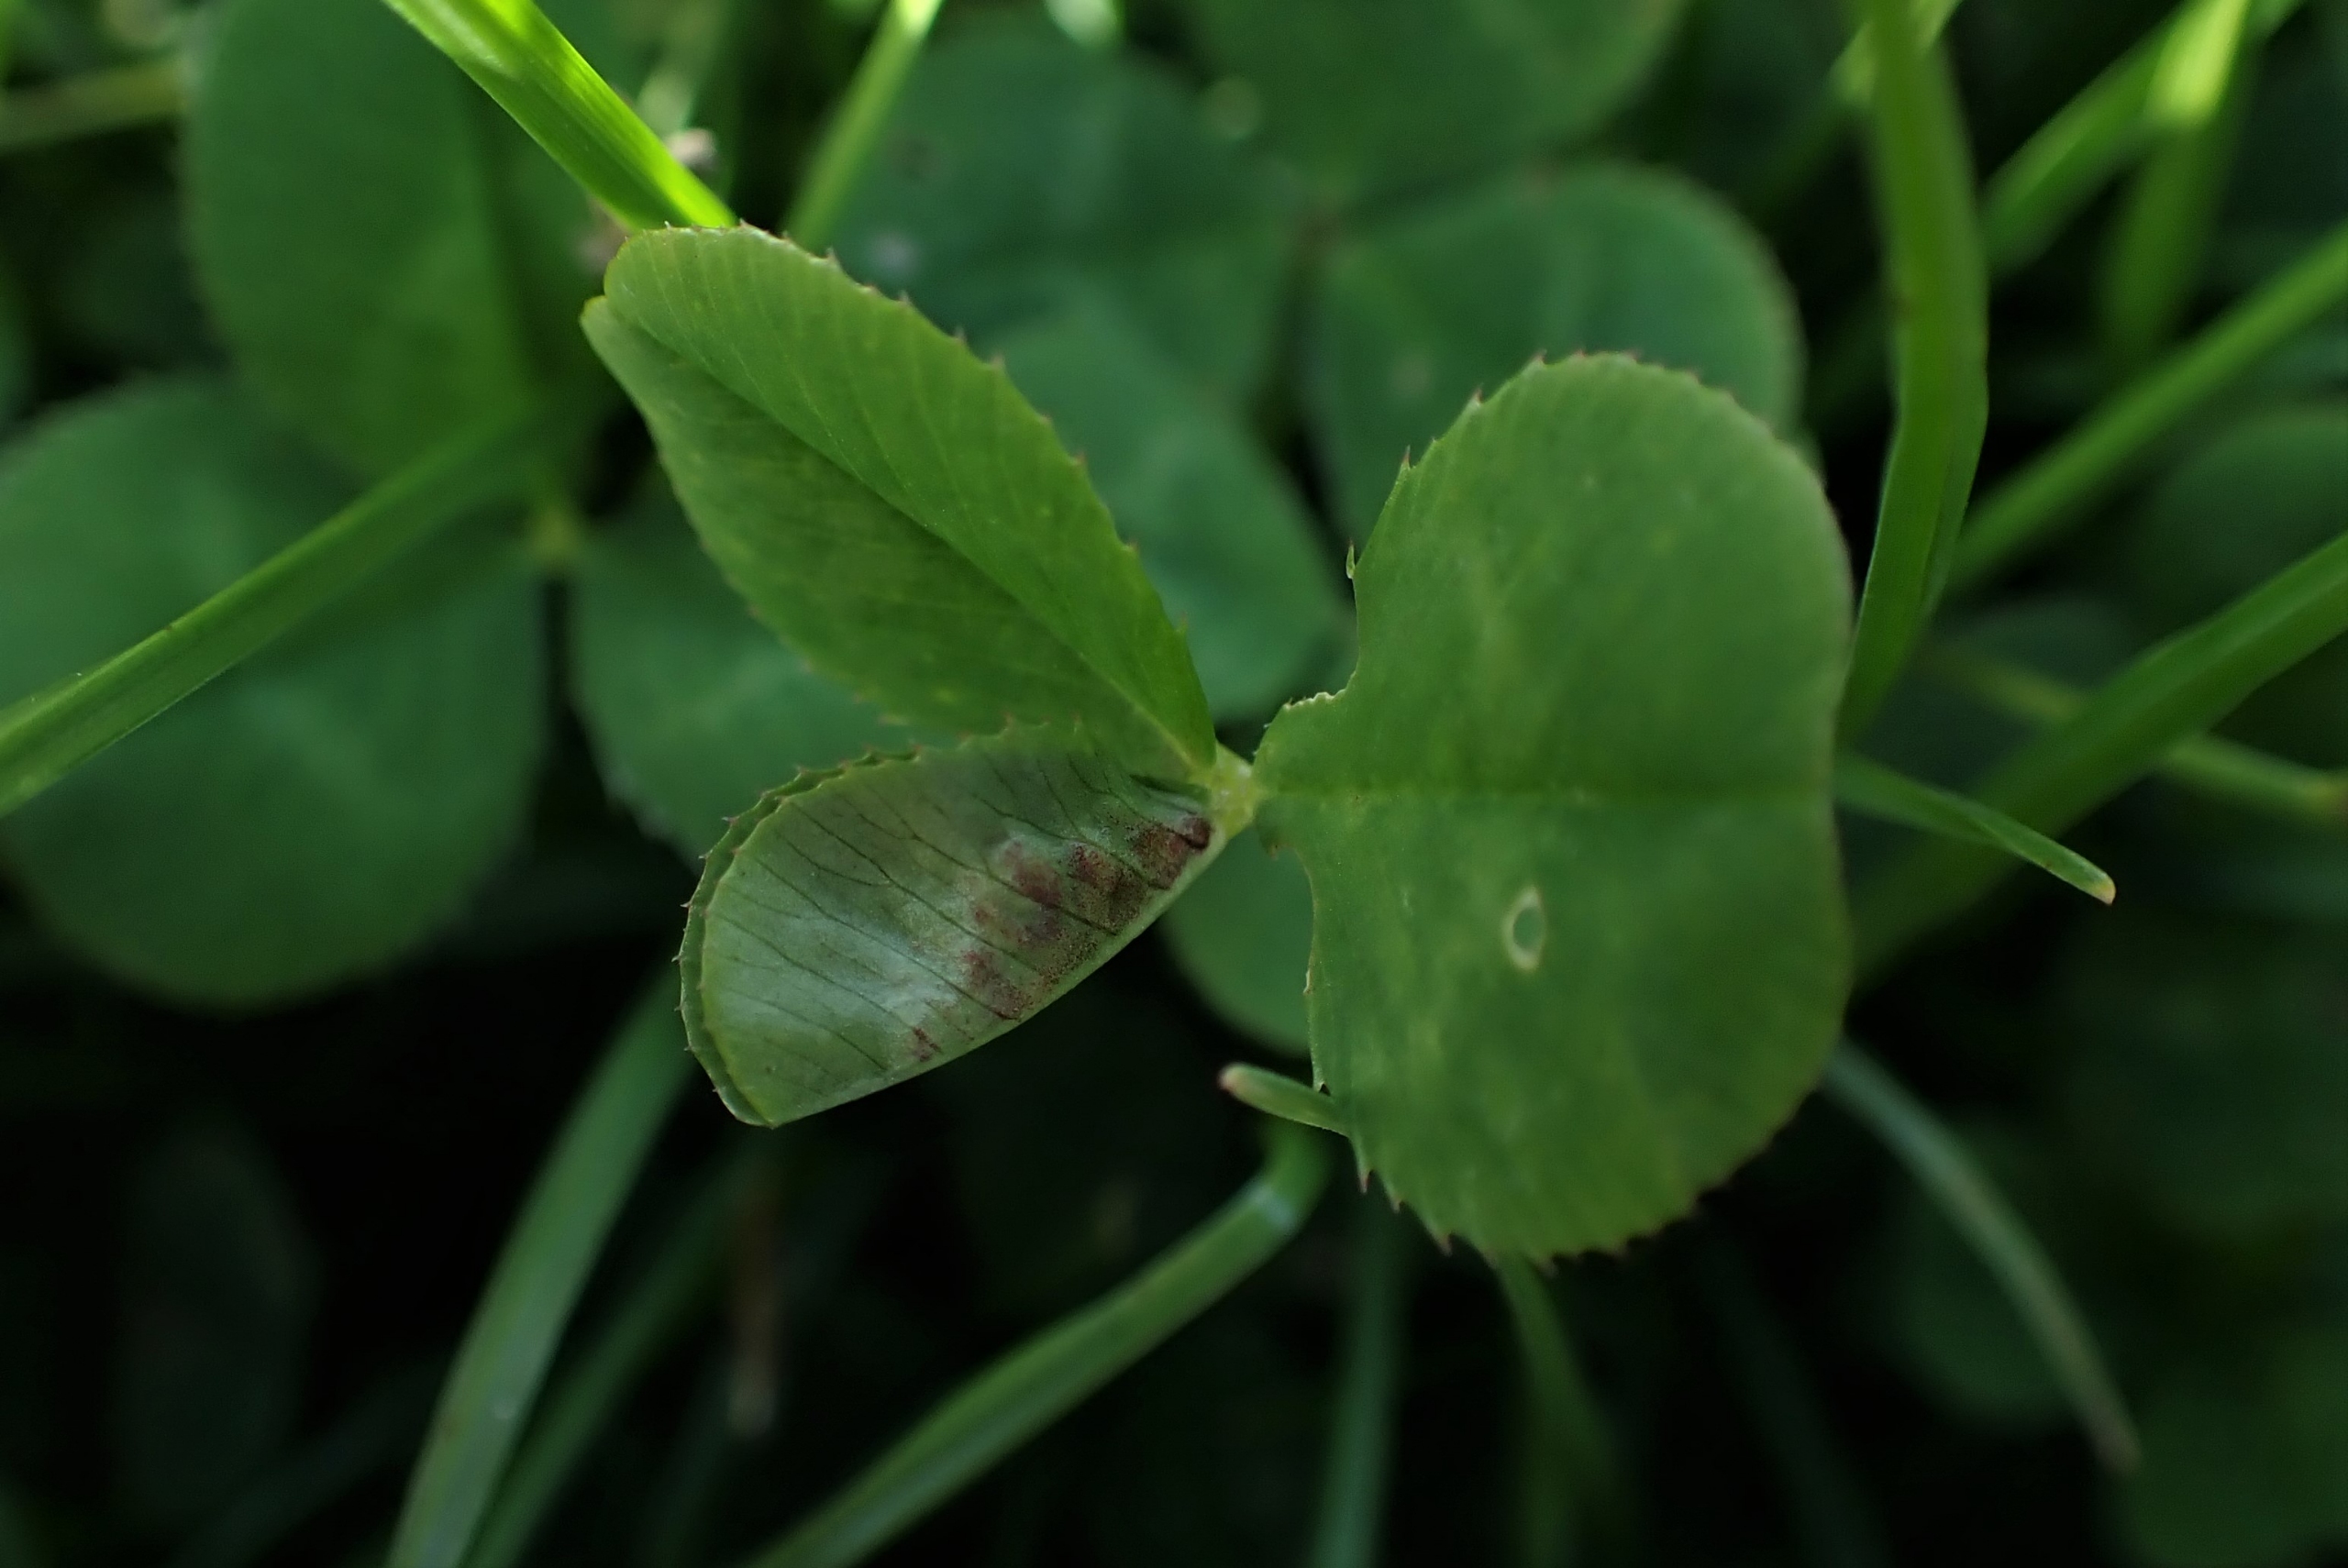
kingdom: Animalia
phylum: Arthropoda
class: Insecta
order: Diptera
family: Cecidomyiidae
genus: Dasineura
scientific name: Dasineura trifolii
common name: Kløverbladgalmyg
